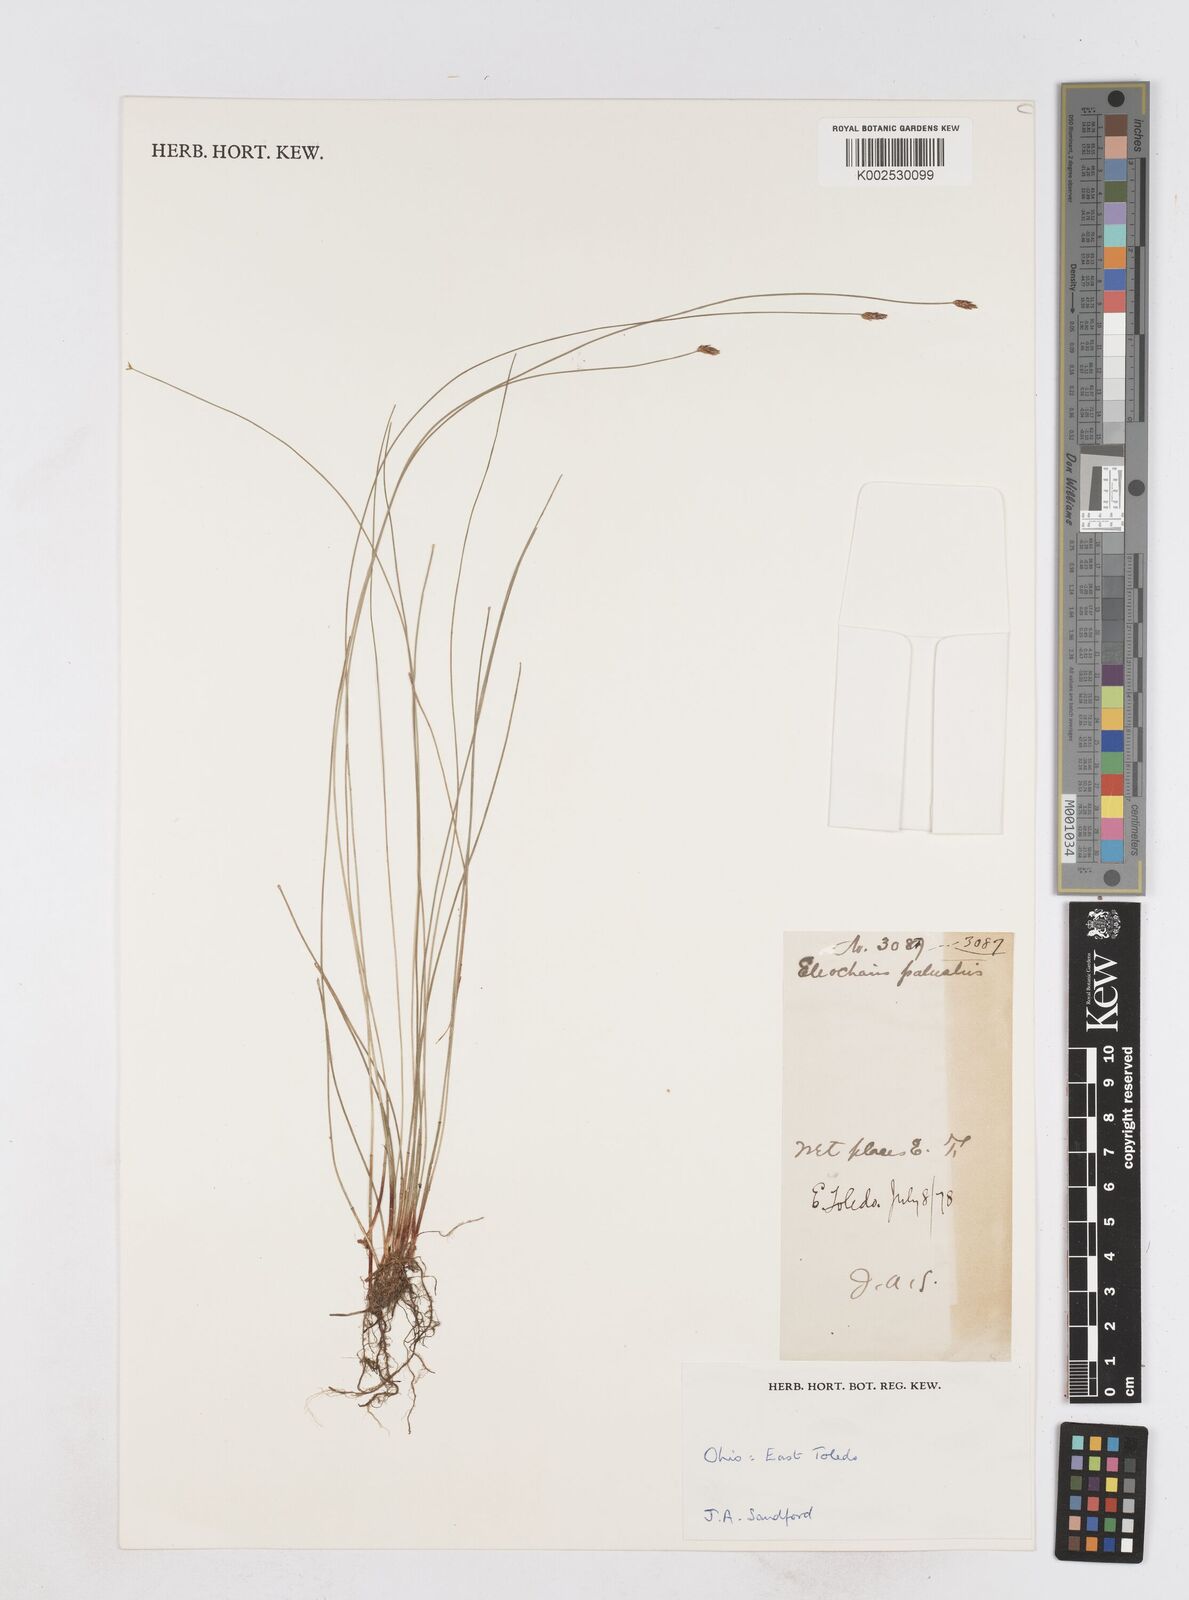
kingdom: Plantae
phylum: Tracheophyta
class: Liliopsida
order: Poales
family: Cyperaceae
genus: Eleocharis
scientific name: Eleocharis palustris
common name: Common spike-rush
